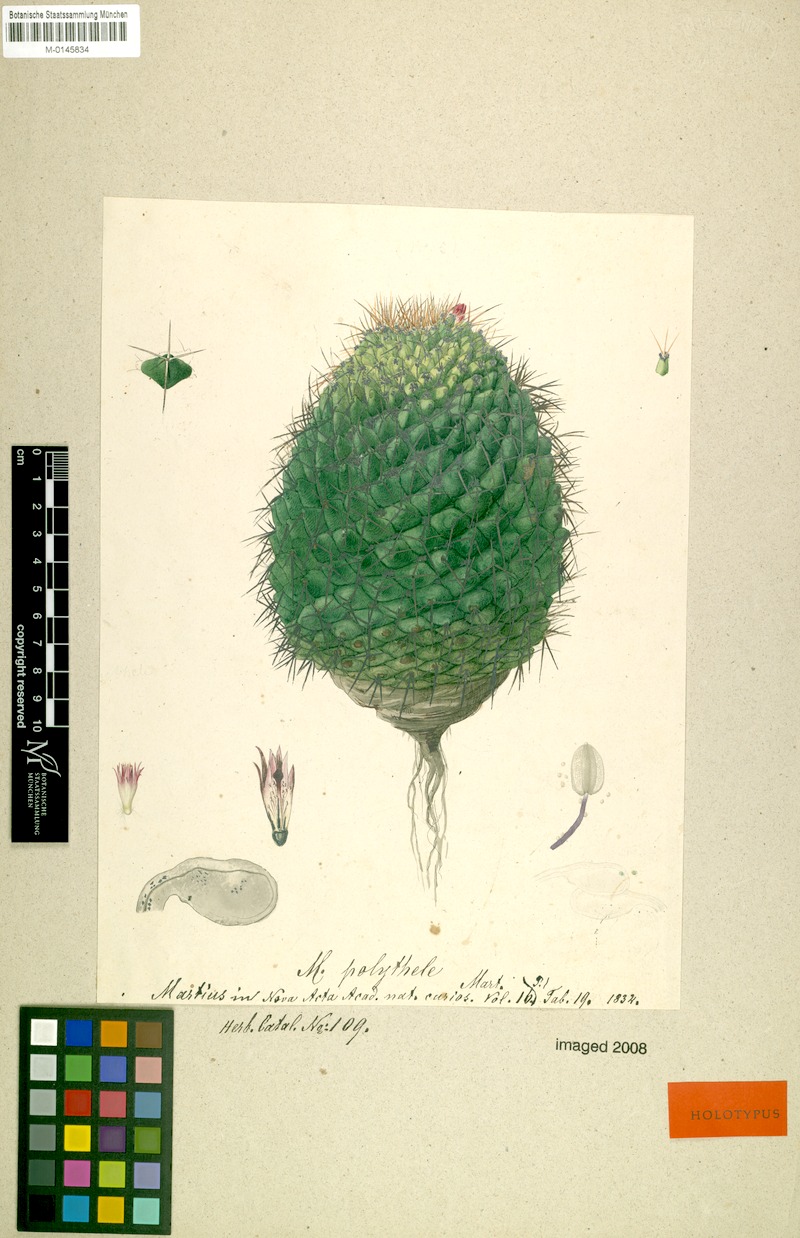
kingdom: Plantae
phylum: Tracheophyta
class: Magnoliopsida
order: Caryophyllales
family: Cactaceae
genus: Mammillaria
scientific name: Mammillaria polythele
